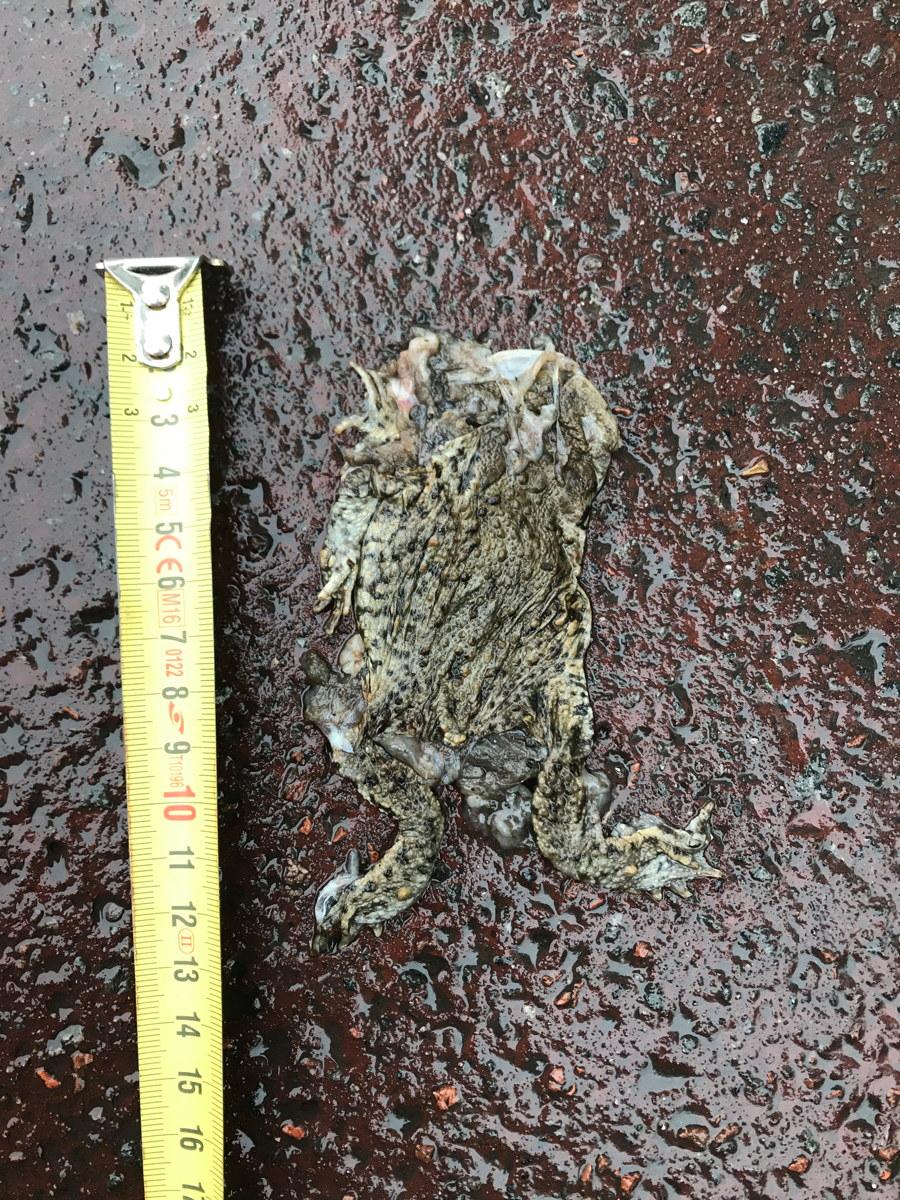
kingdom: Animalia
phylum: Chordata
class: Amphibia
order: Anura
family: Bufonidae
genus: Bufo
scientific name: Bufo bufo
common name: Common toad
